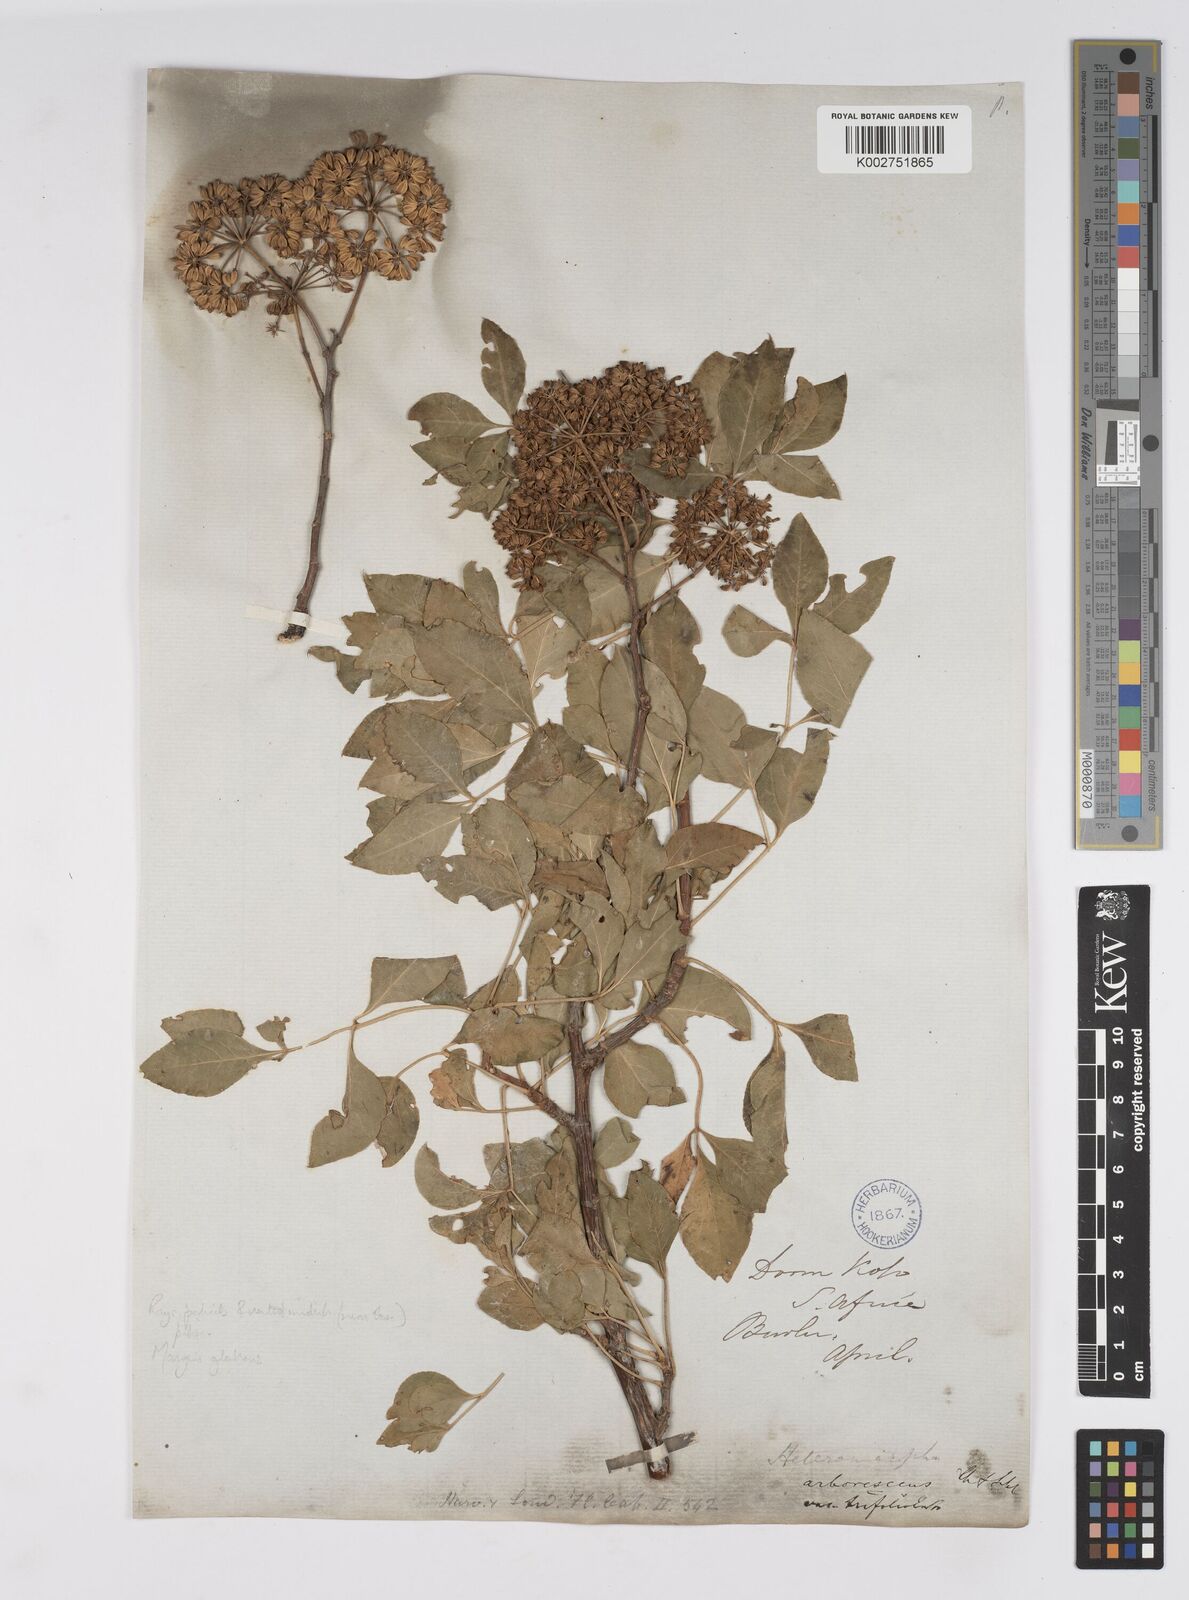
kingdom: Plantae
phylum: Tracheophyta
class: Magnoliopsida
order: Apiales
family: Apiaceae
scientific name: Apiaceae
